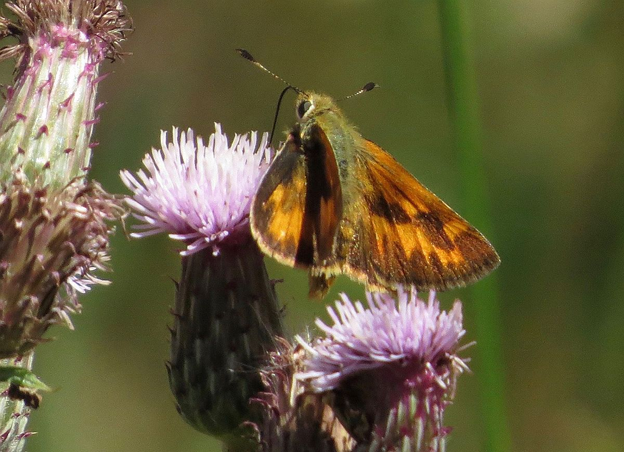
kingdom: Animalia
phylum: Arthropoda
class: Insecta
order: Lepidoptera
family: Hesperiidae
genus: Ochlodes
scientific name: Ochlodes sylvanoides
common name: Woodland Skipper
